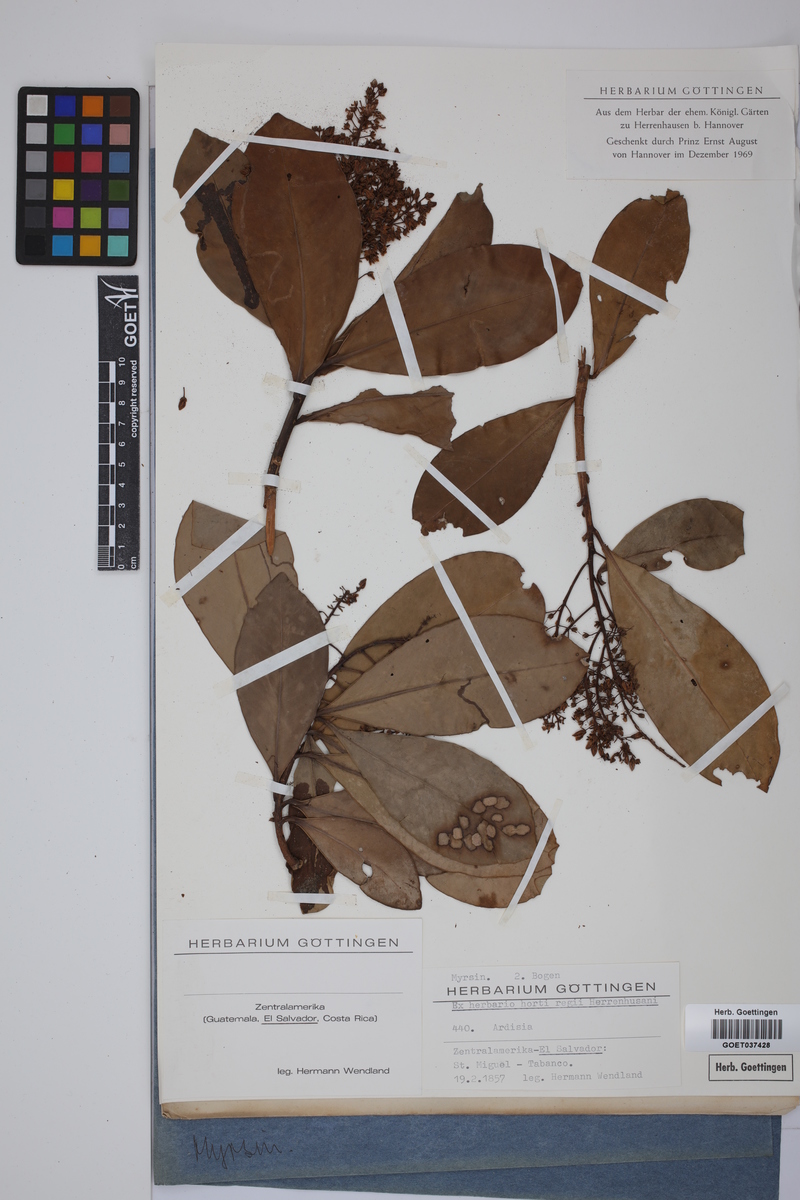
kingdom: Plantae
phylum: Tracheophyta
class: Magnoliopsida
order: Ericales
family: Primulaceae
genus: Ardisia
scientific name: Ardisia
